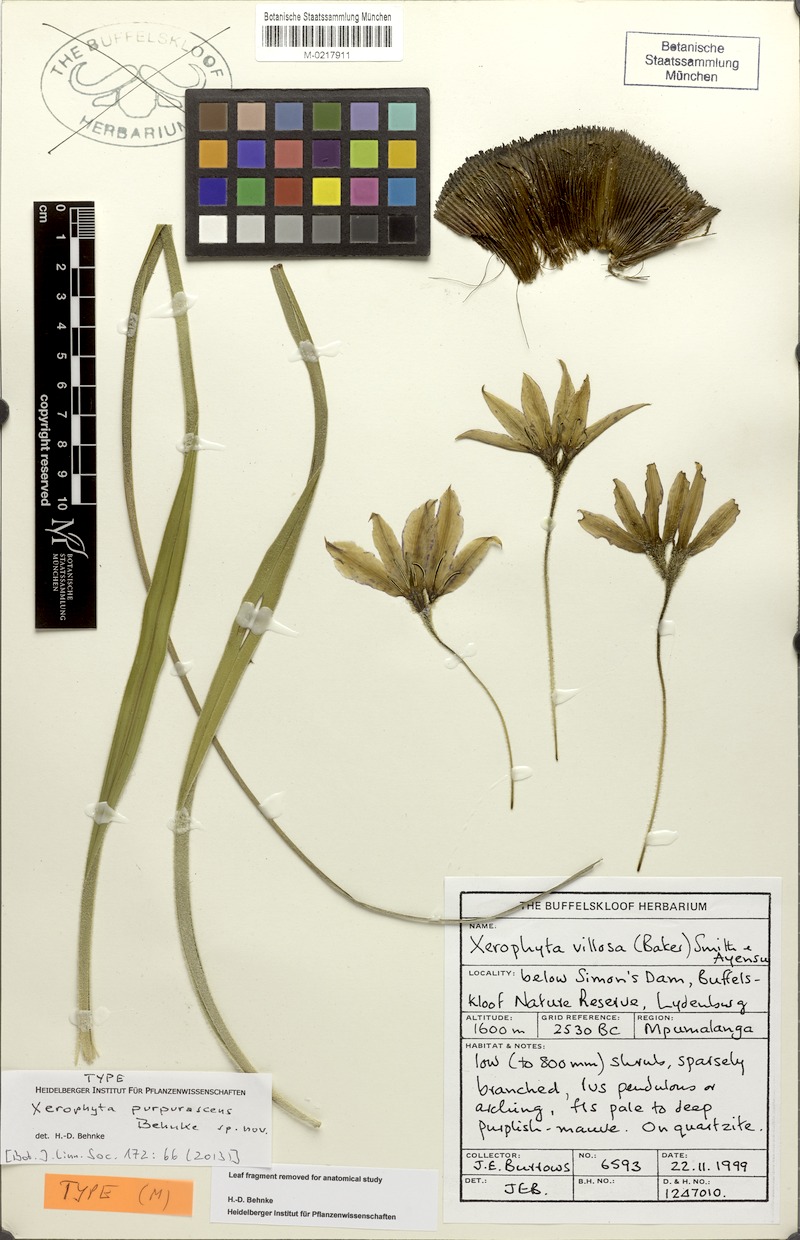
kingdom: Plantae
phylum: Tracheophyta
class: Liliopsida
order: Pandanales
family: Velloziaceae
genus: Xerophyta
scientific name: Xerophyta purpurascens
